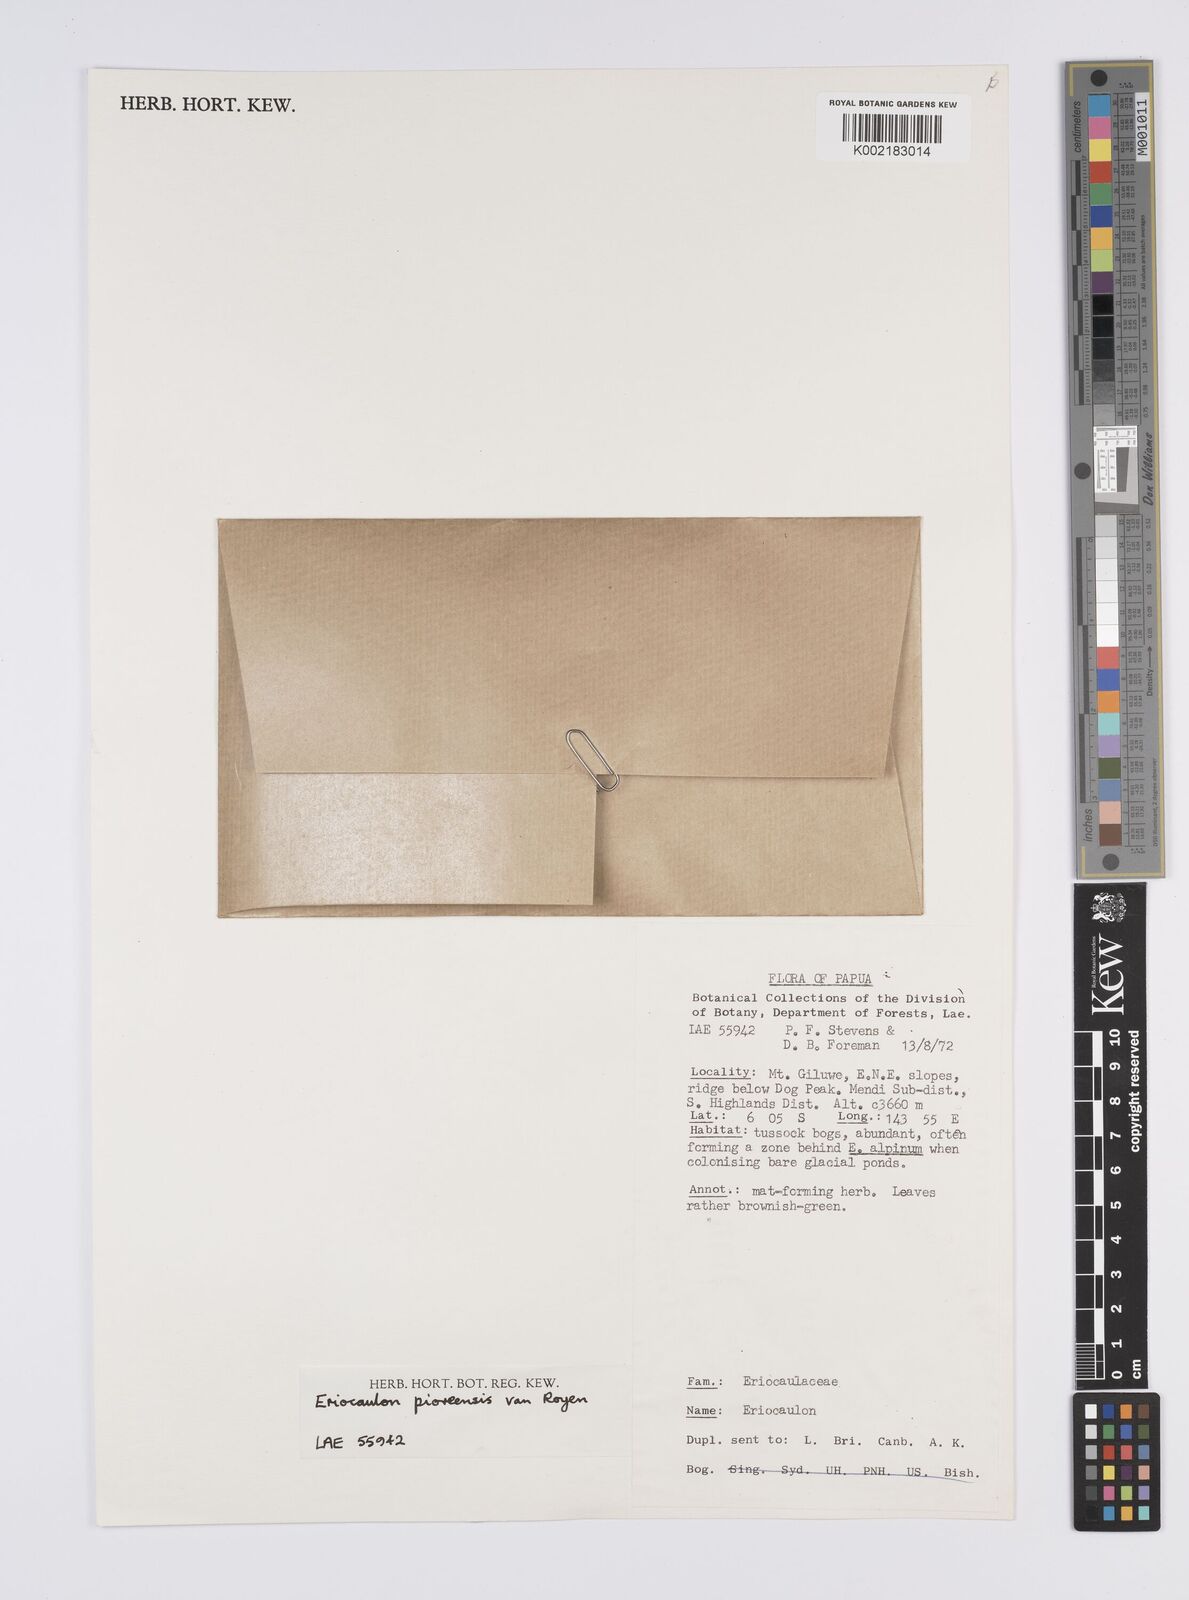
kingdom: Plantae
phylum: Tracheophyta
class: Liliopsida
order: Poales
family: Eriocaulaceae
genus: Eriocaulon
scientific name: Eriocaulon
